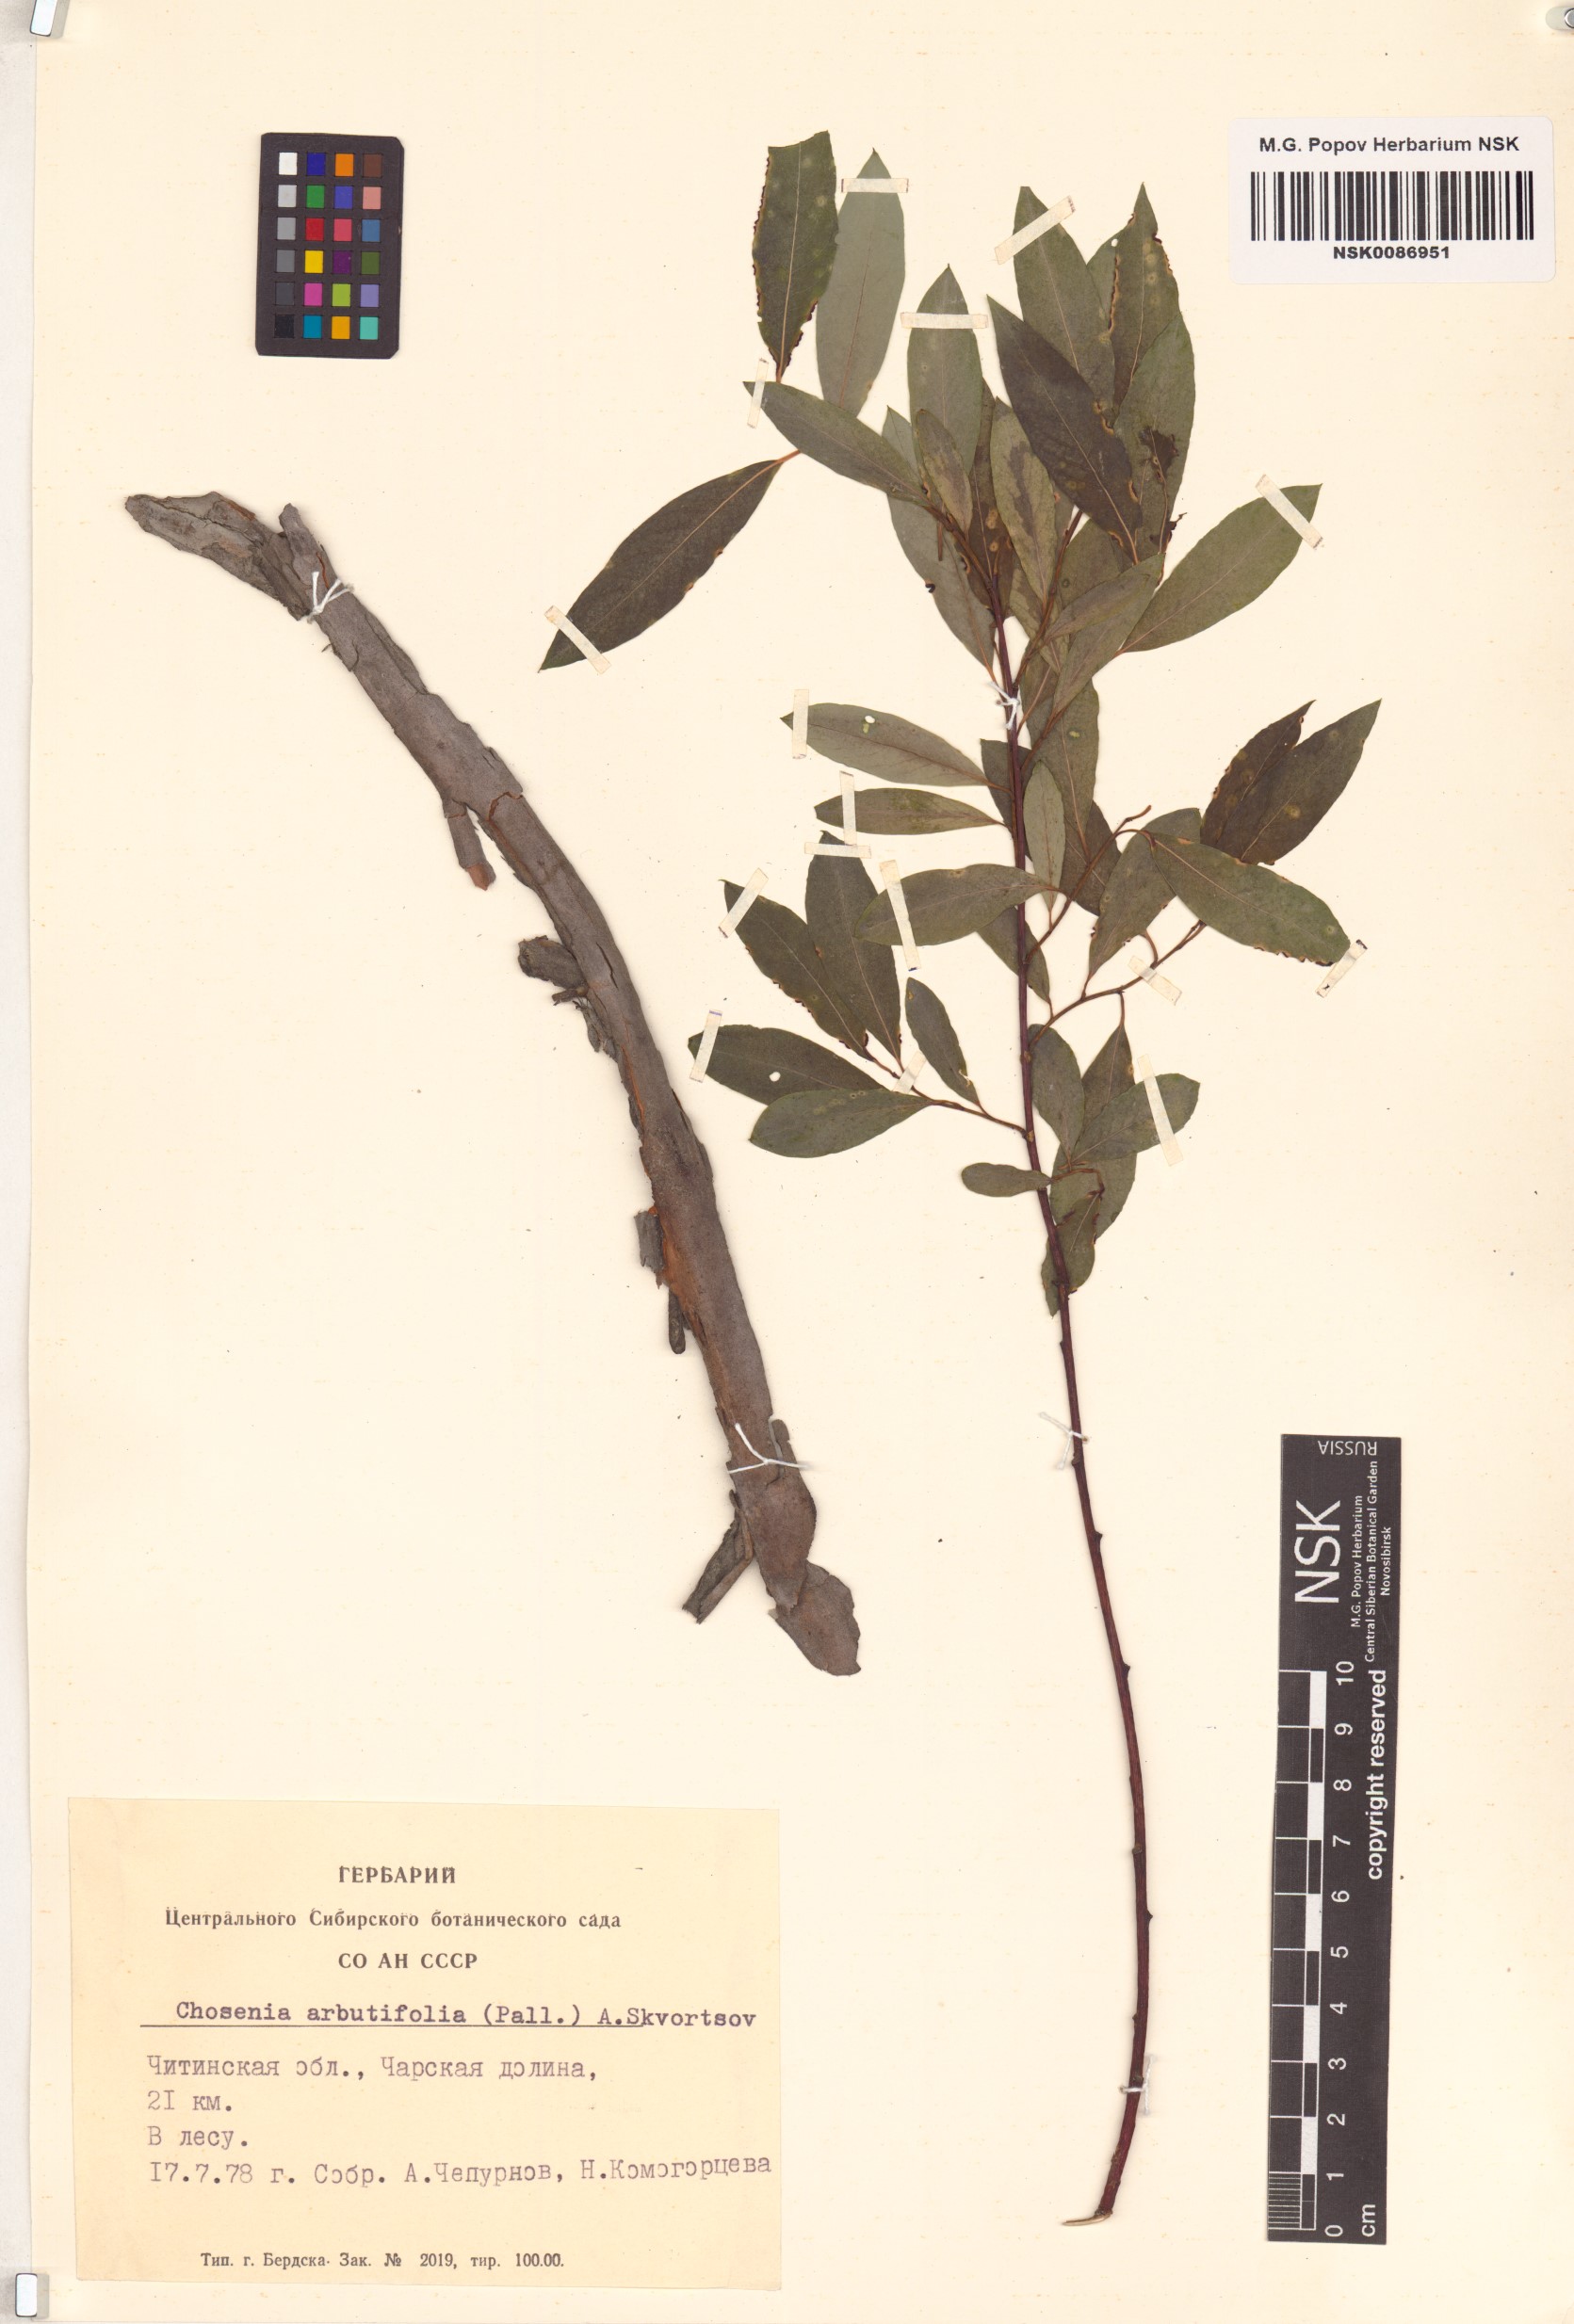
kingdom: Plantae
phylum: Tracheophyta
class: Magnoliopsida
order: Malpighiales
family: Salicaceae
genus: Chosenia
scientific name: Chosenia arbutifolia
